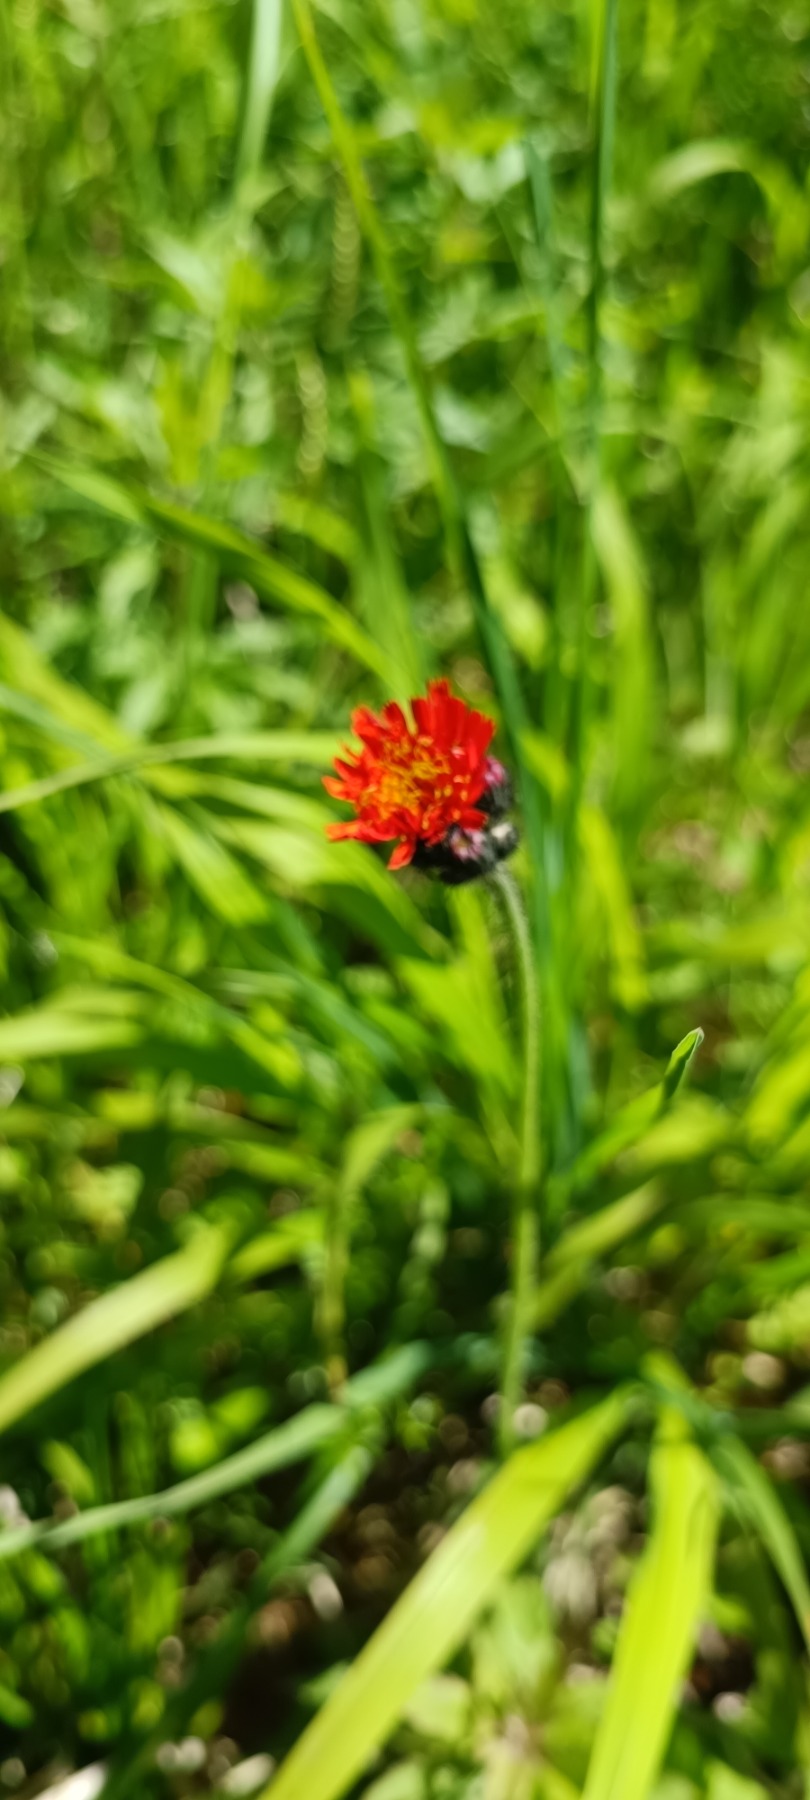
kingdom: Plantae
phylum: Tracheophyta
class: Magnoliopsida
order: Asterales
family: Asteraceae
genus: Pilosella
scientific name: Pilosella aurantiaca
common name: Pomerans-høgeurt
